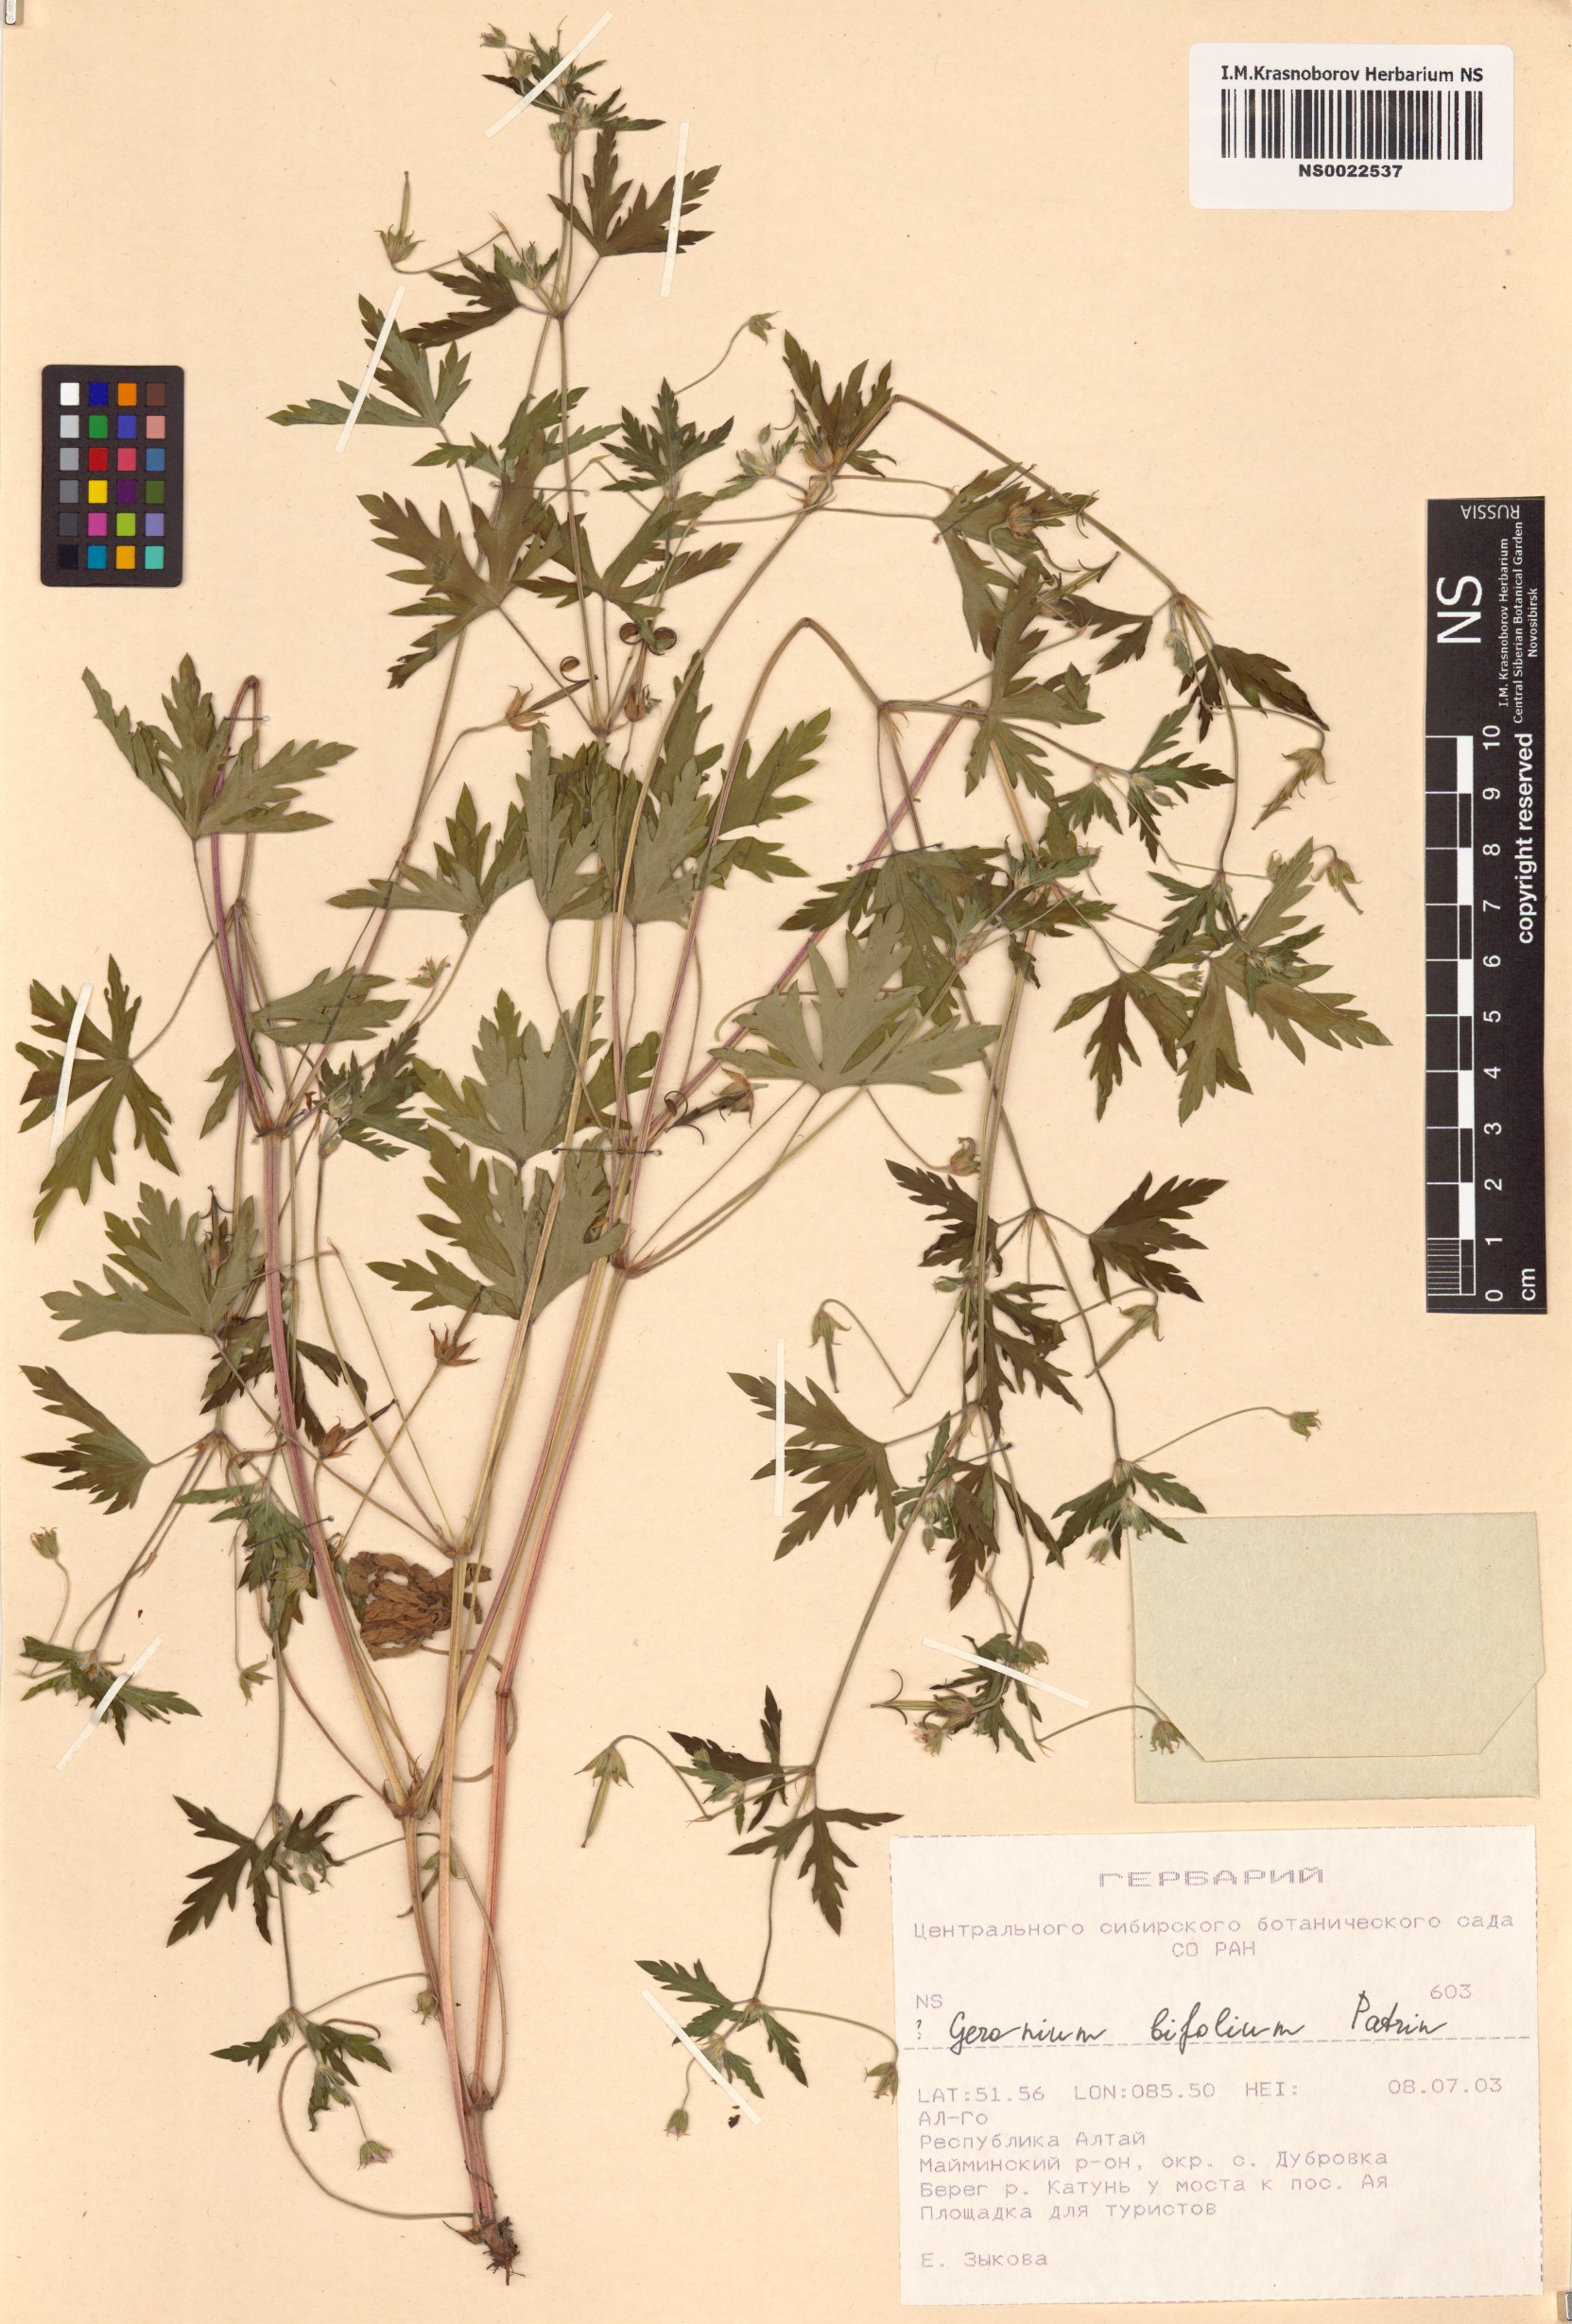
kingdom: Plantae
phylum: Tracheophyta
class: Magnoliopsida
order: Geraniales
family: Geraniaceae
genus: Geranium
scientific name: Geranium pseudosibiricum
